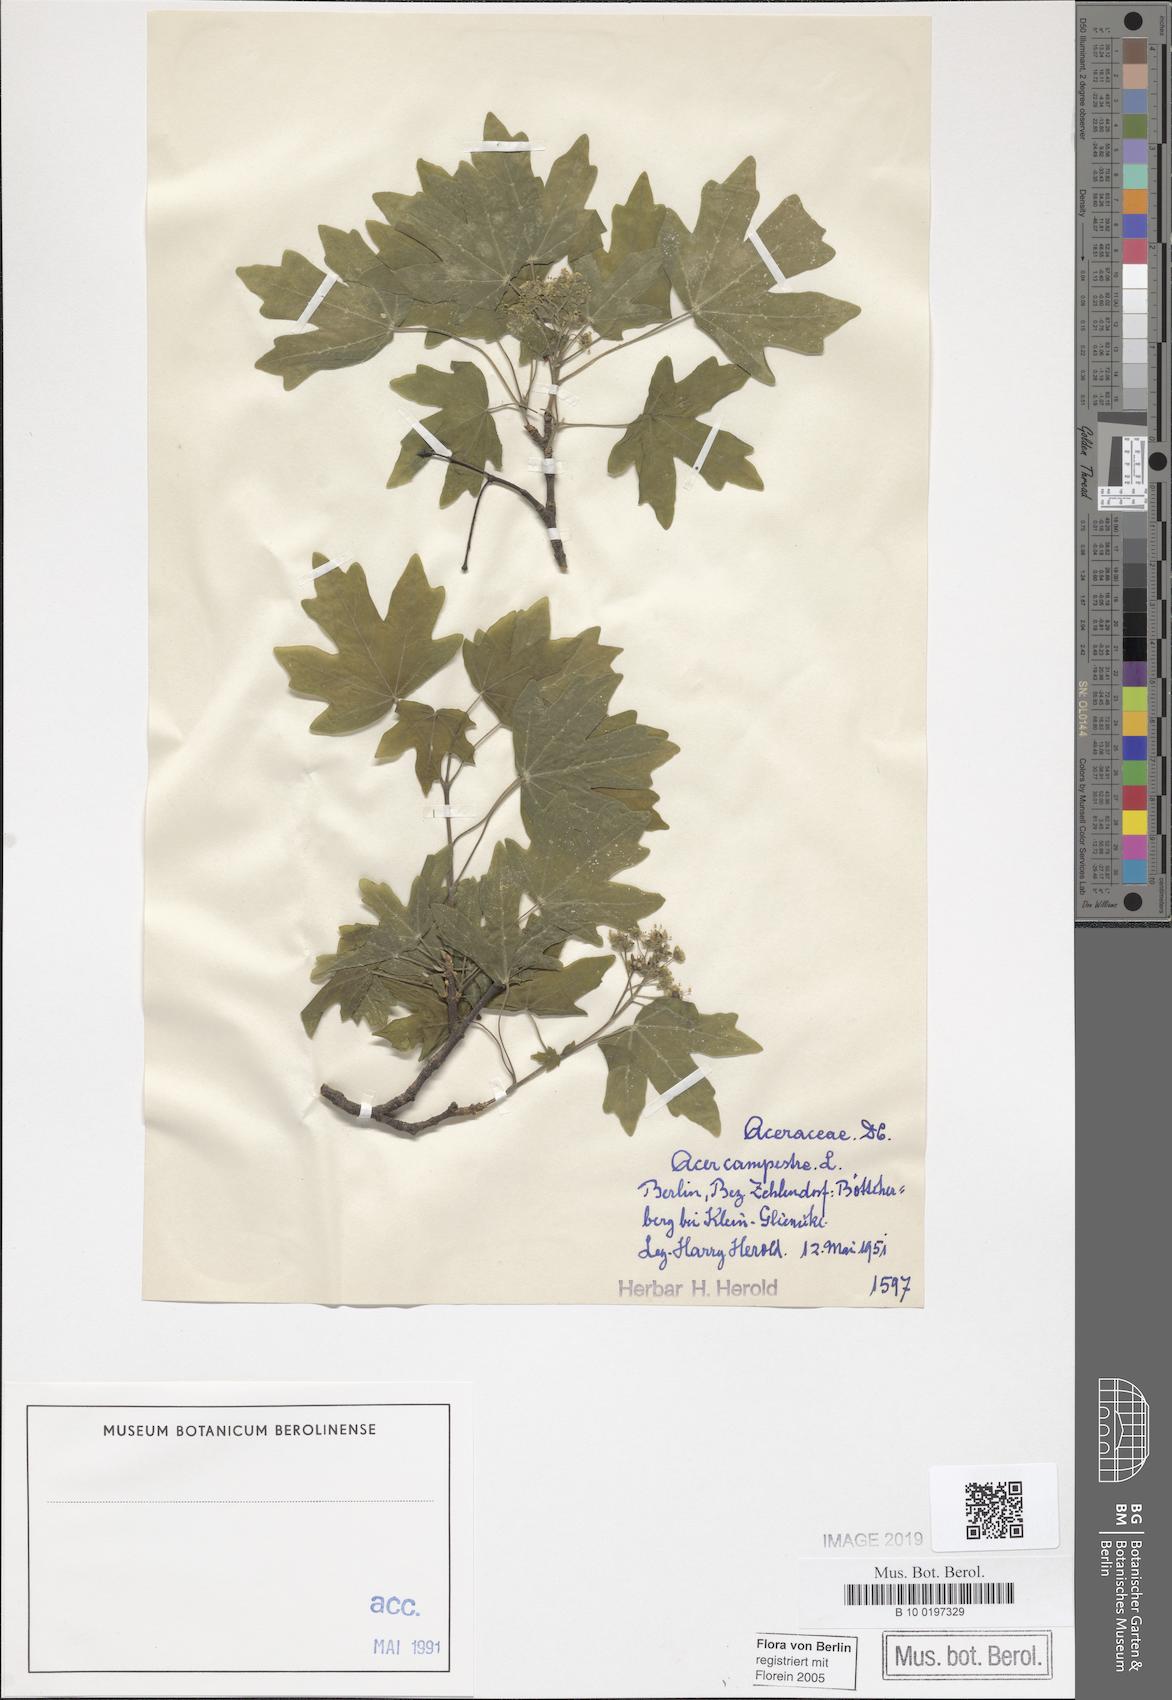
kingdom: Plantae
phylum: Tracheophyta
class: Magnoliopsida
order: Sapindales
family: Sapindaceae
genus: Acer
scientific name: Acer campestre
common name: Field maple
